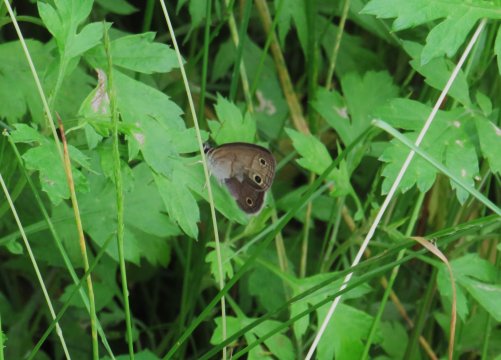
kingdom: Animalia
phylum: Arthropoda
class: Insecta
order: Lepidoptera
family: Nymphalidae
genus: Euptychia
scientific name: Euptychia cymela
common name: Little Wood Satyr
